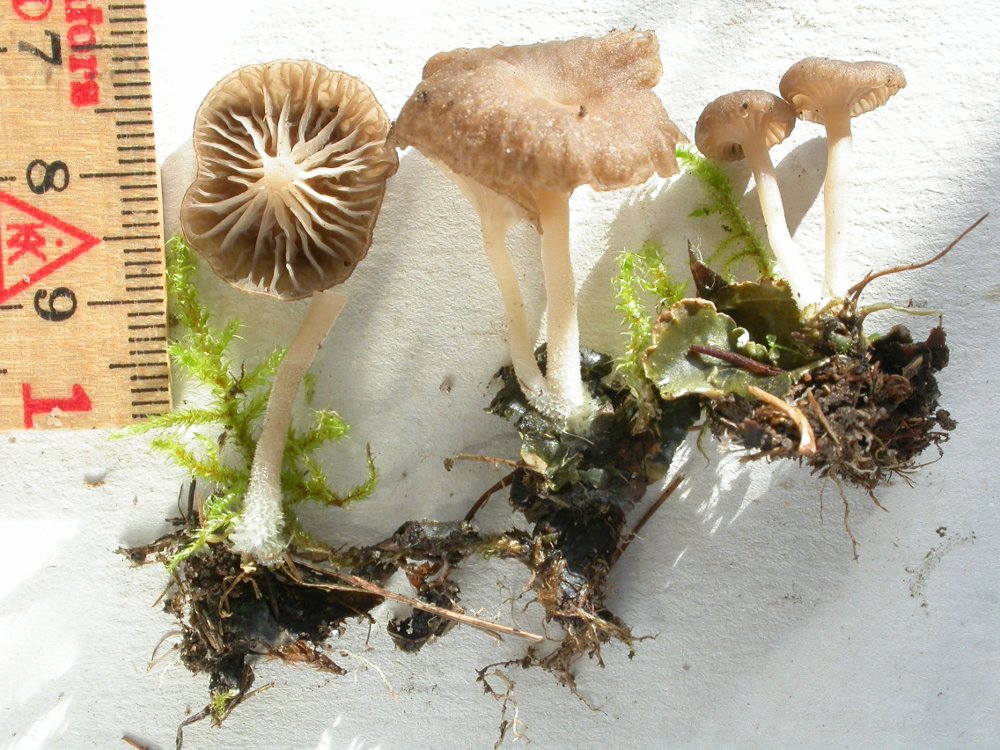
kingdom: Fungi
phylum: Basidiomycota
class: Agaricomycetes
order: Agaricales
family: Hygrophoraceae
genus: Arrhenia
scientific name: Arrhenia peltigerina
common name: skjoldlav-fontænehat
